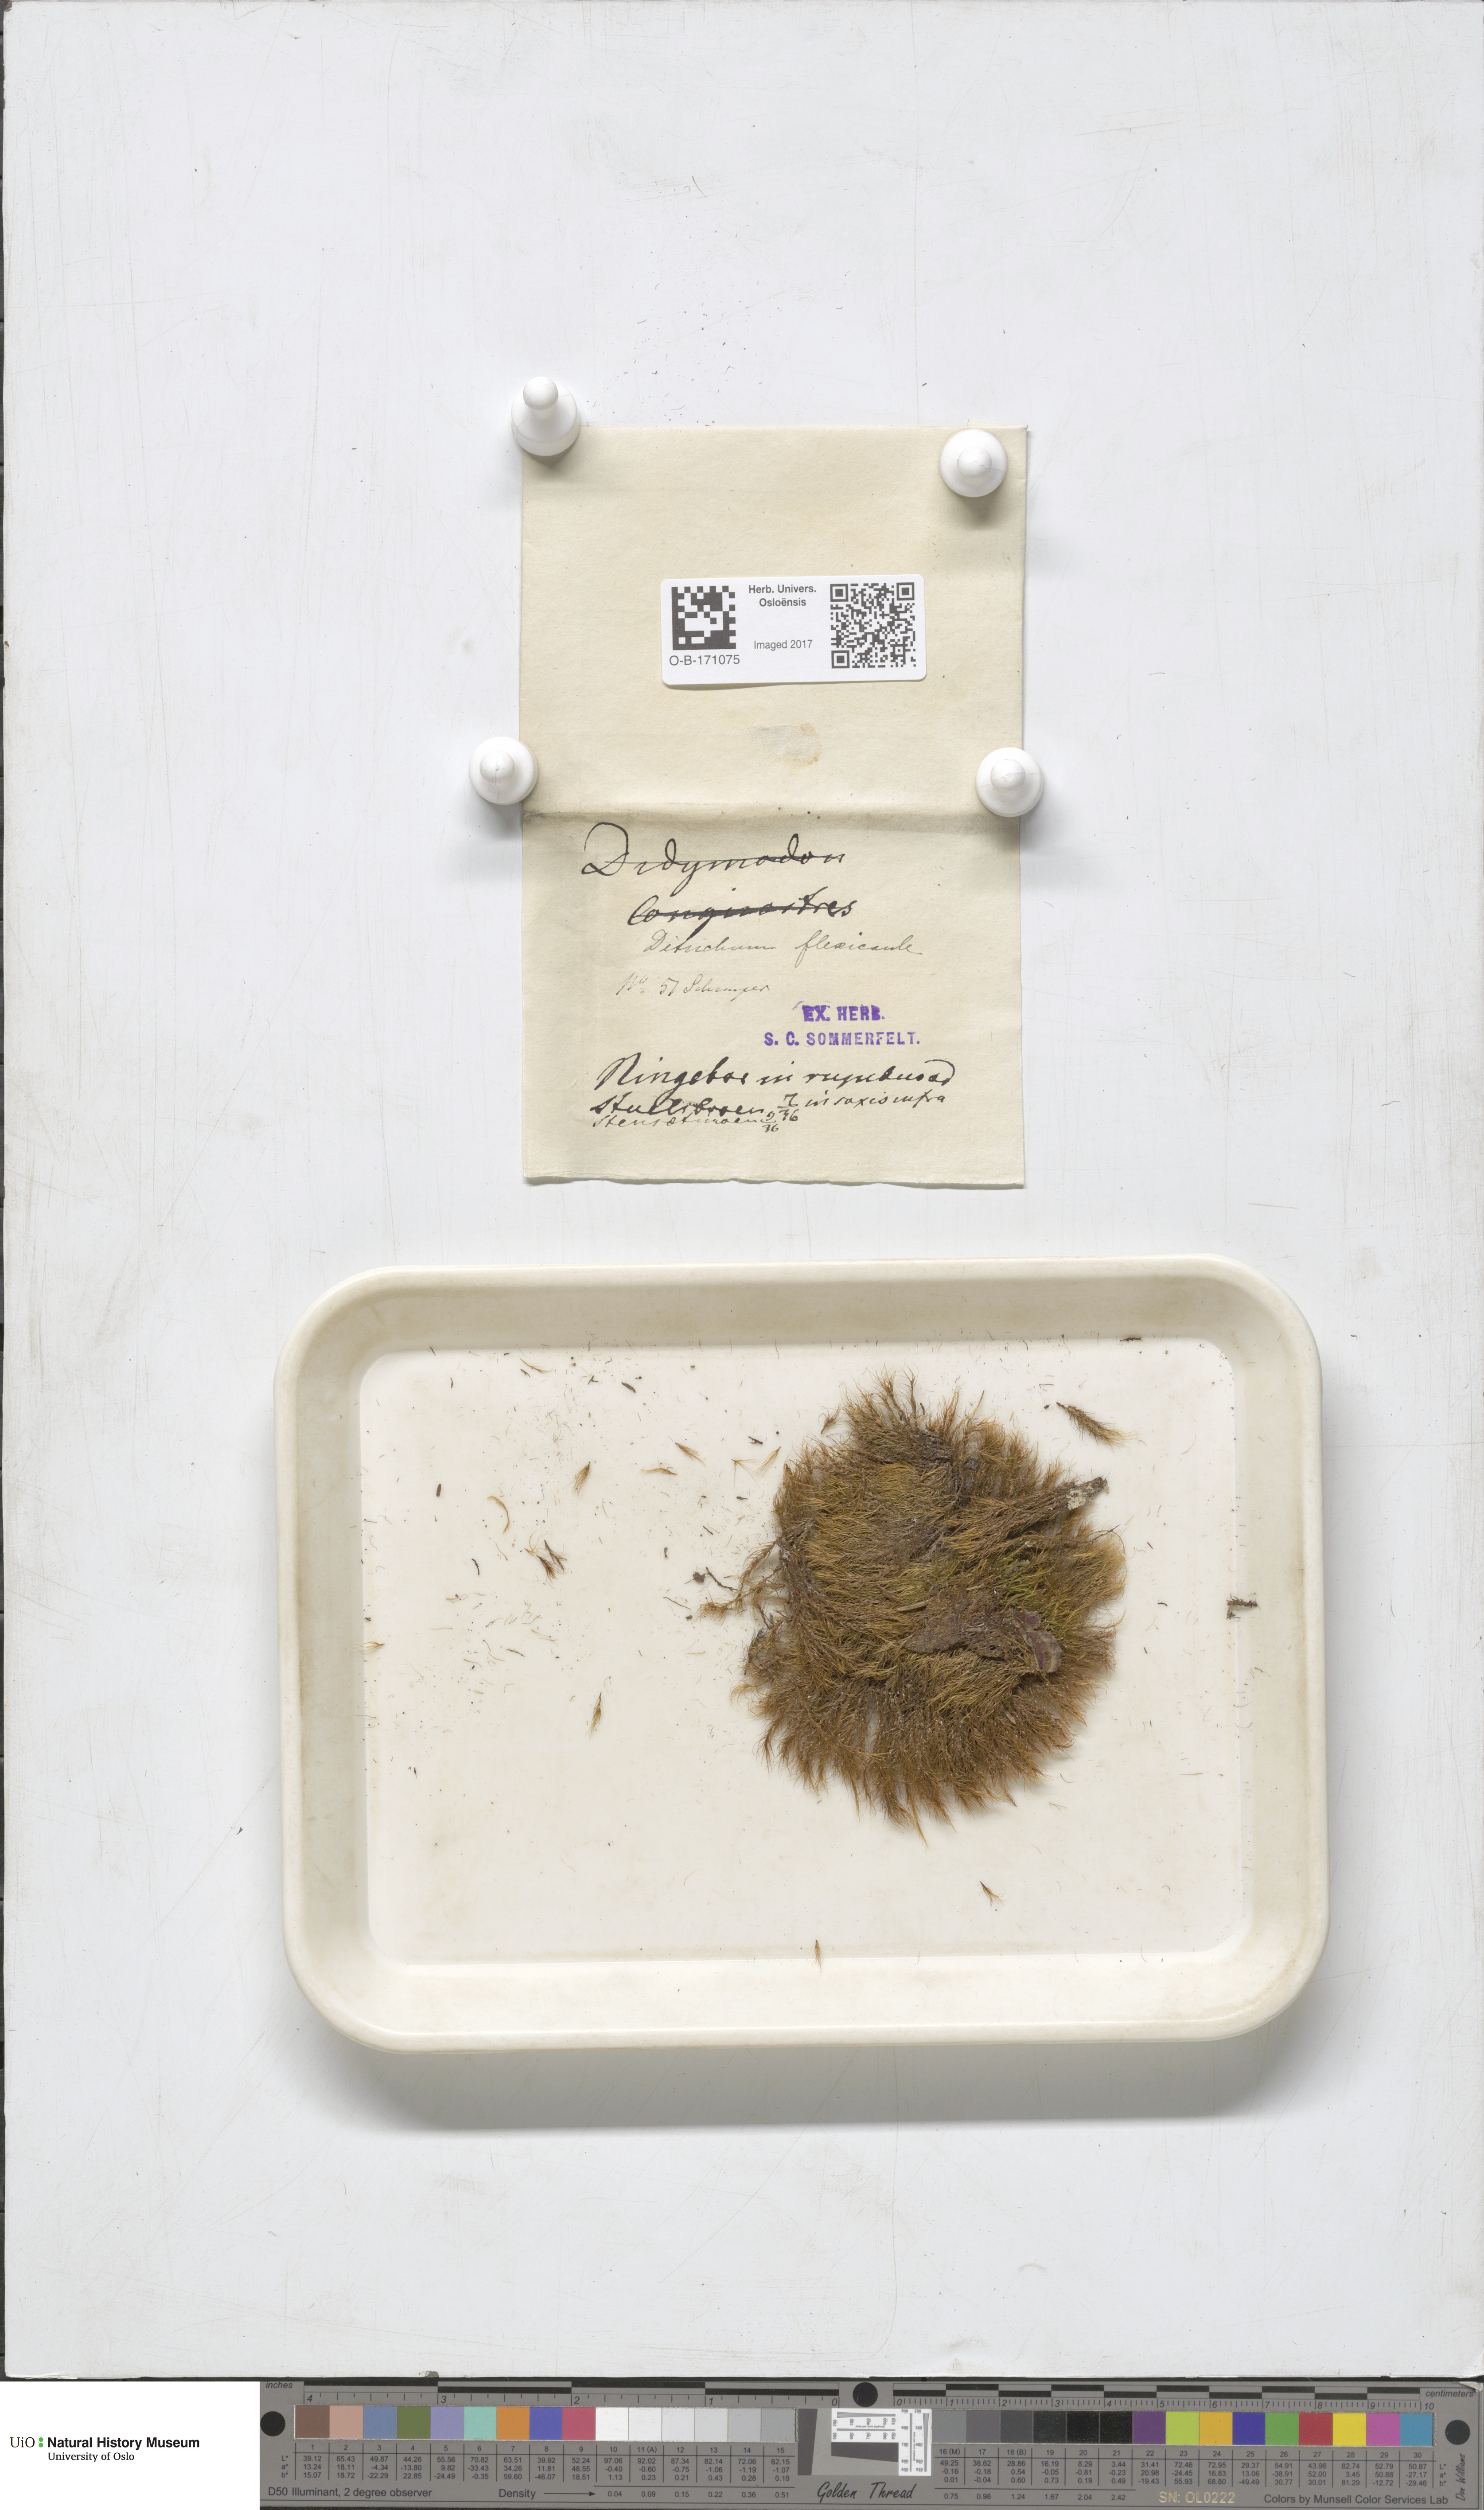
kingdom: Plantae
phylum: Bryophyta
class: Bryopsida
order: Scouleriales
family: Flexitrichaceae
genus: Flexitrichum
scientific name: Flexitrichum flexicaule
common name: Bendy ditrichum
